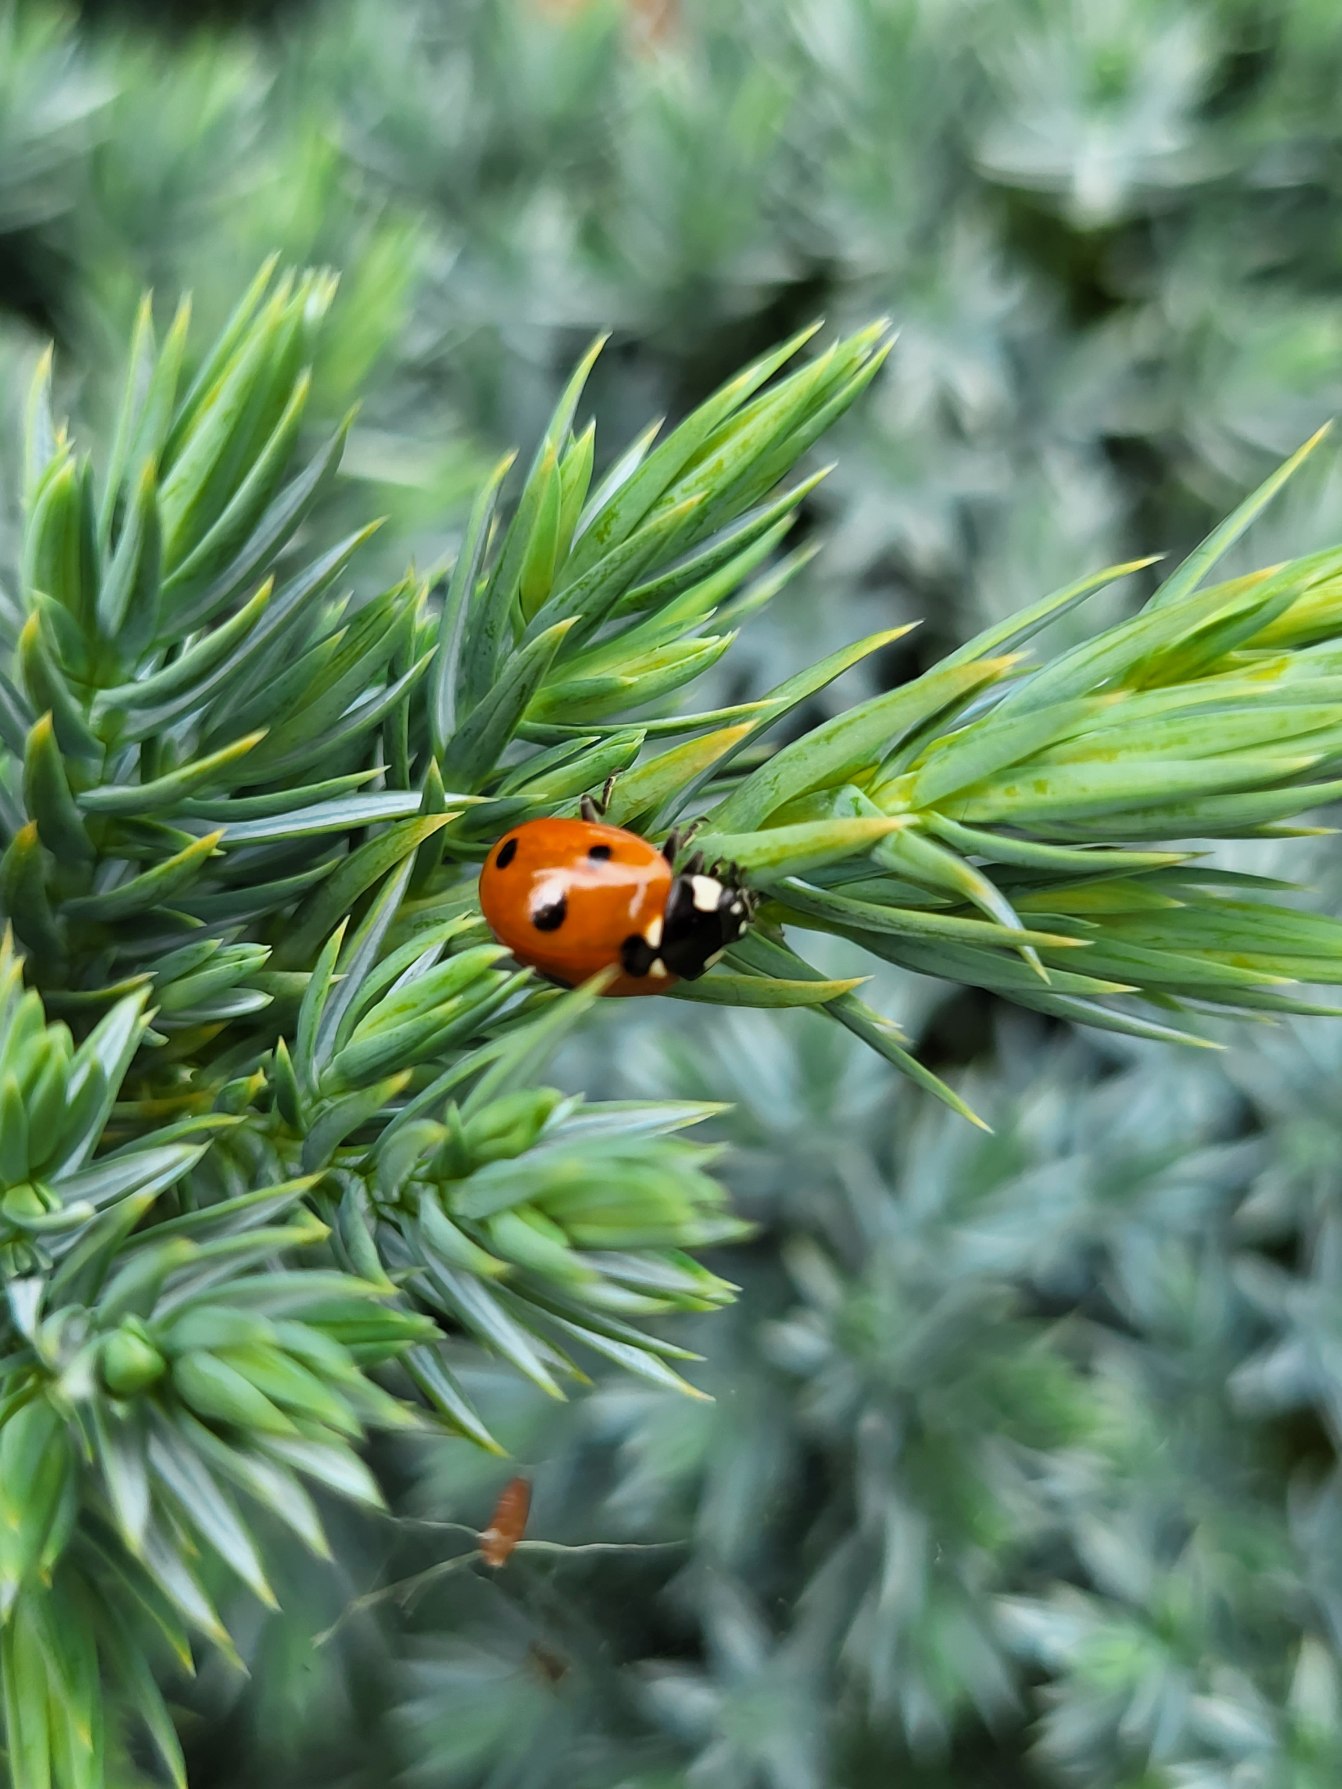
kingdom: Animalia
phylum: Arthropoda
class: Insecta
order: Coleoptera
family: Coccinellidae
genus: Coccinella
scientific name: Coccinella septempunctata
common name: Syvplettet mariehøne
